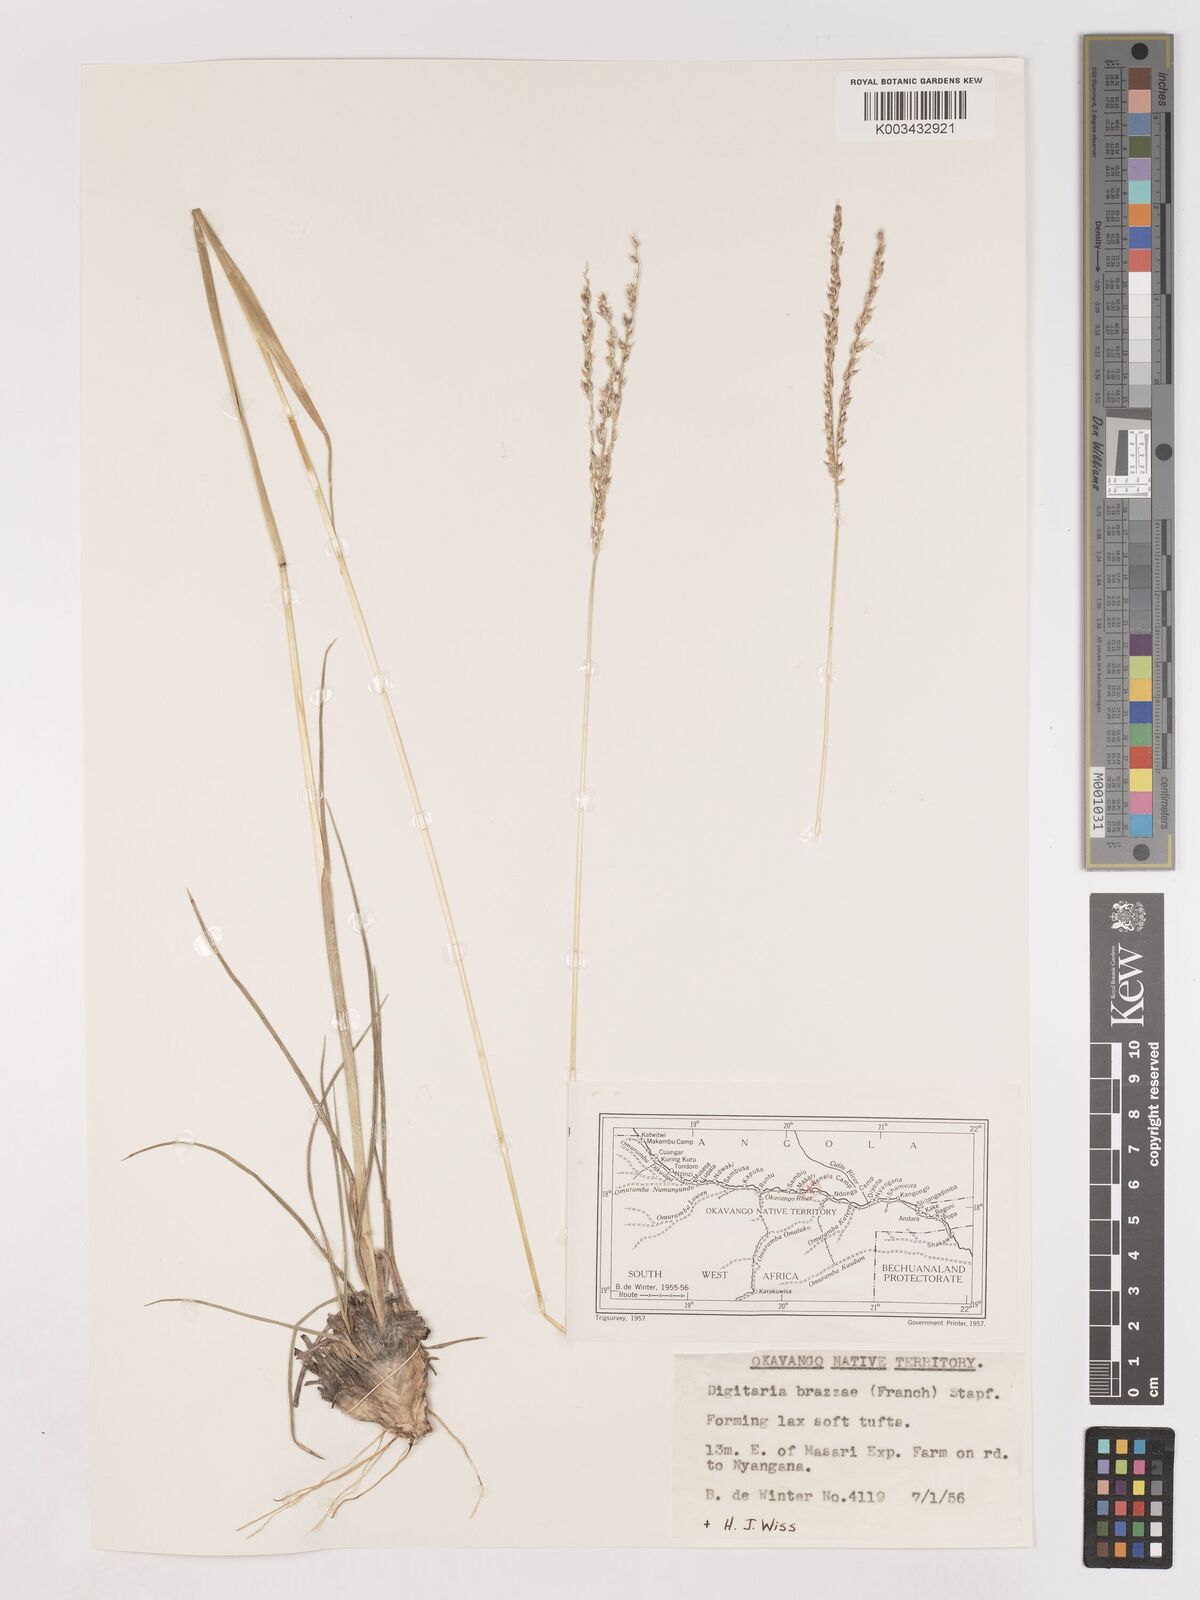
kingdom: Plantae
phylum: Tracheophyta
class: Liliopsida
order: Poales
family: Poaceae
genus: Digitaria
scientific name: Digitaria brazzae
